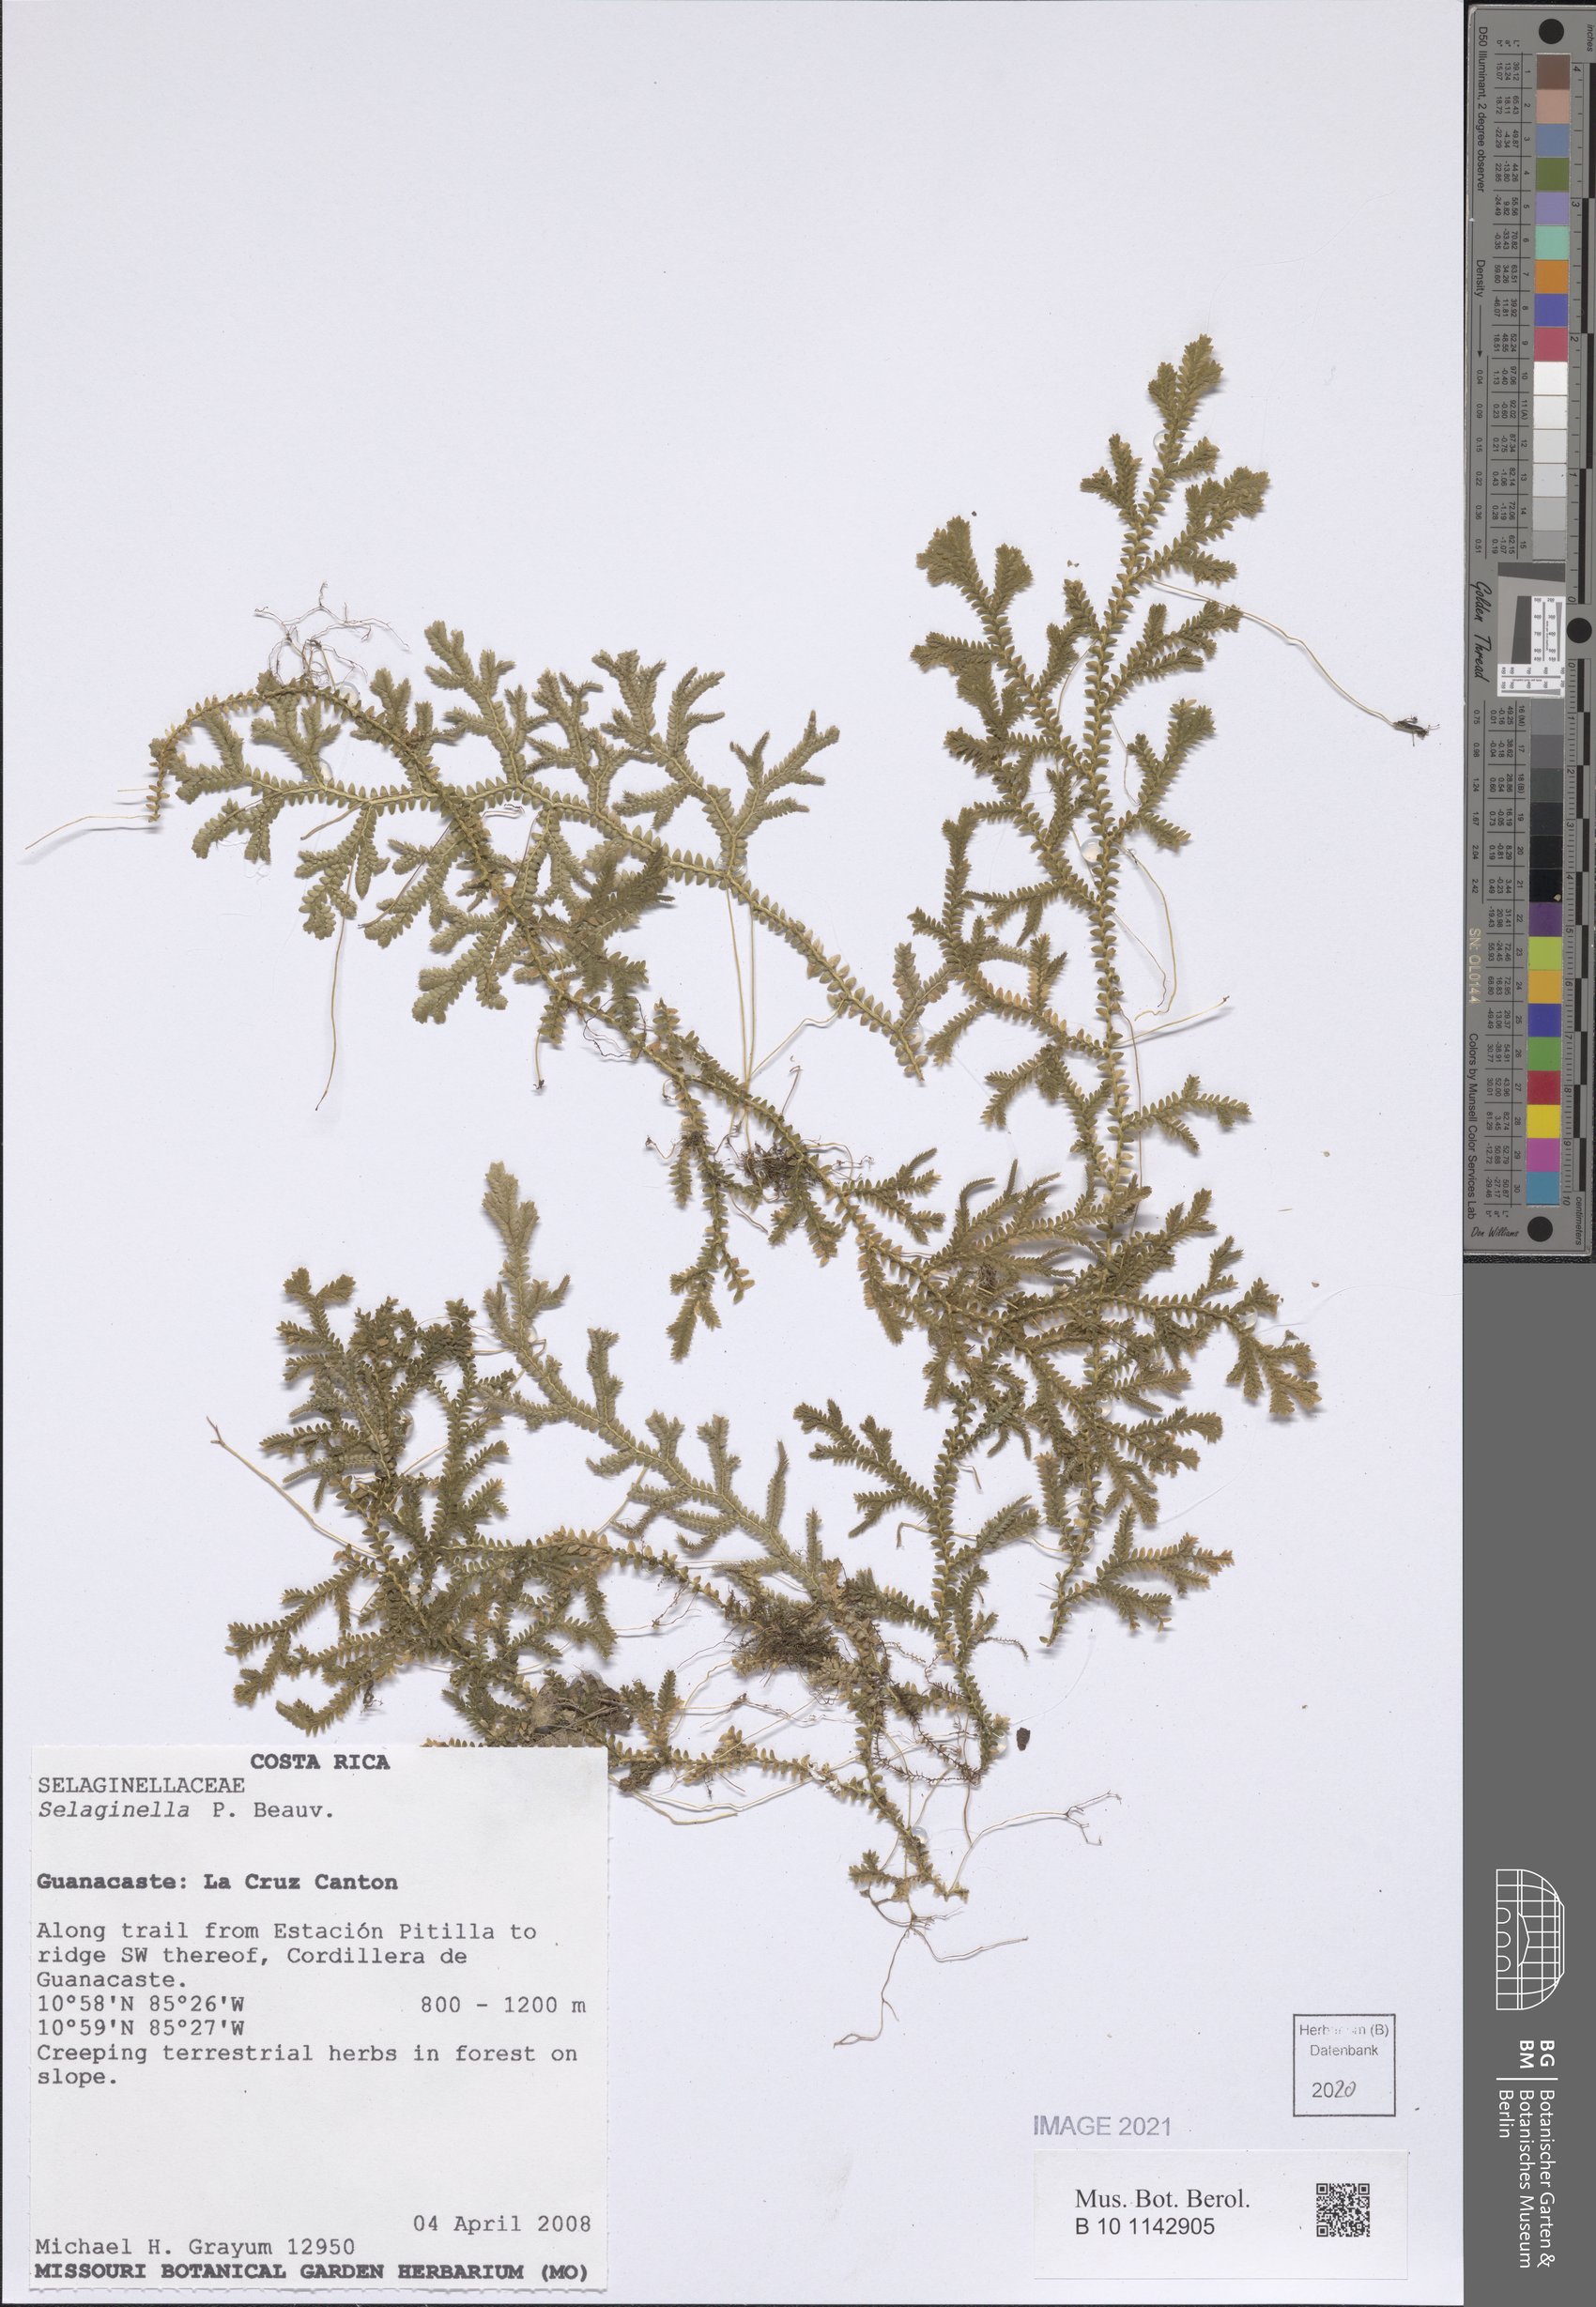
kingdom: Plantae
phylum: Tracheophyta
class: Lycopodiopsida
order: Selaginellales
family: Selaginellaceae
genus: Selaginella
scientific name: Selaginella
